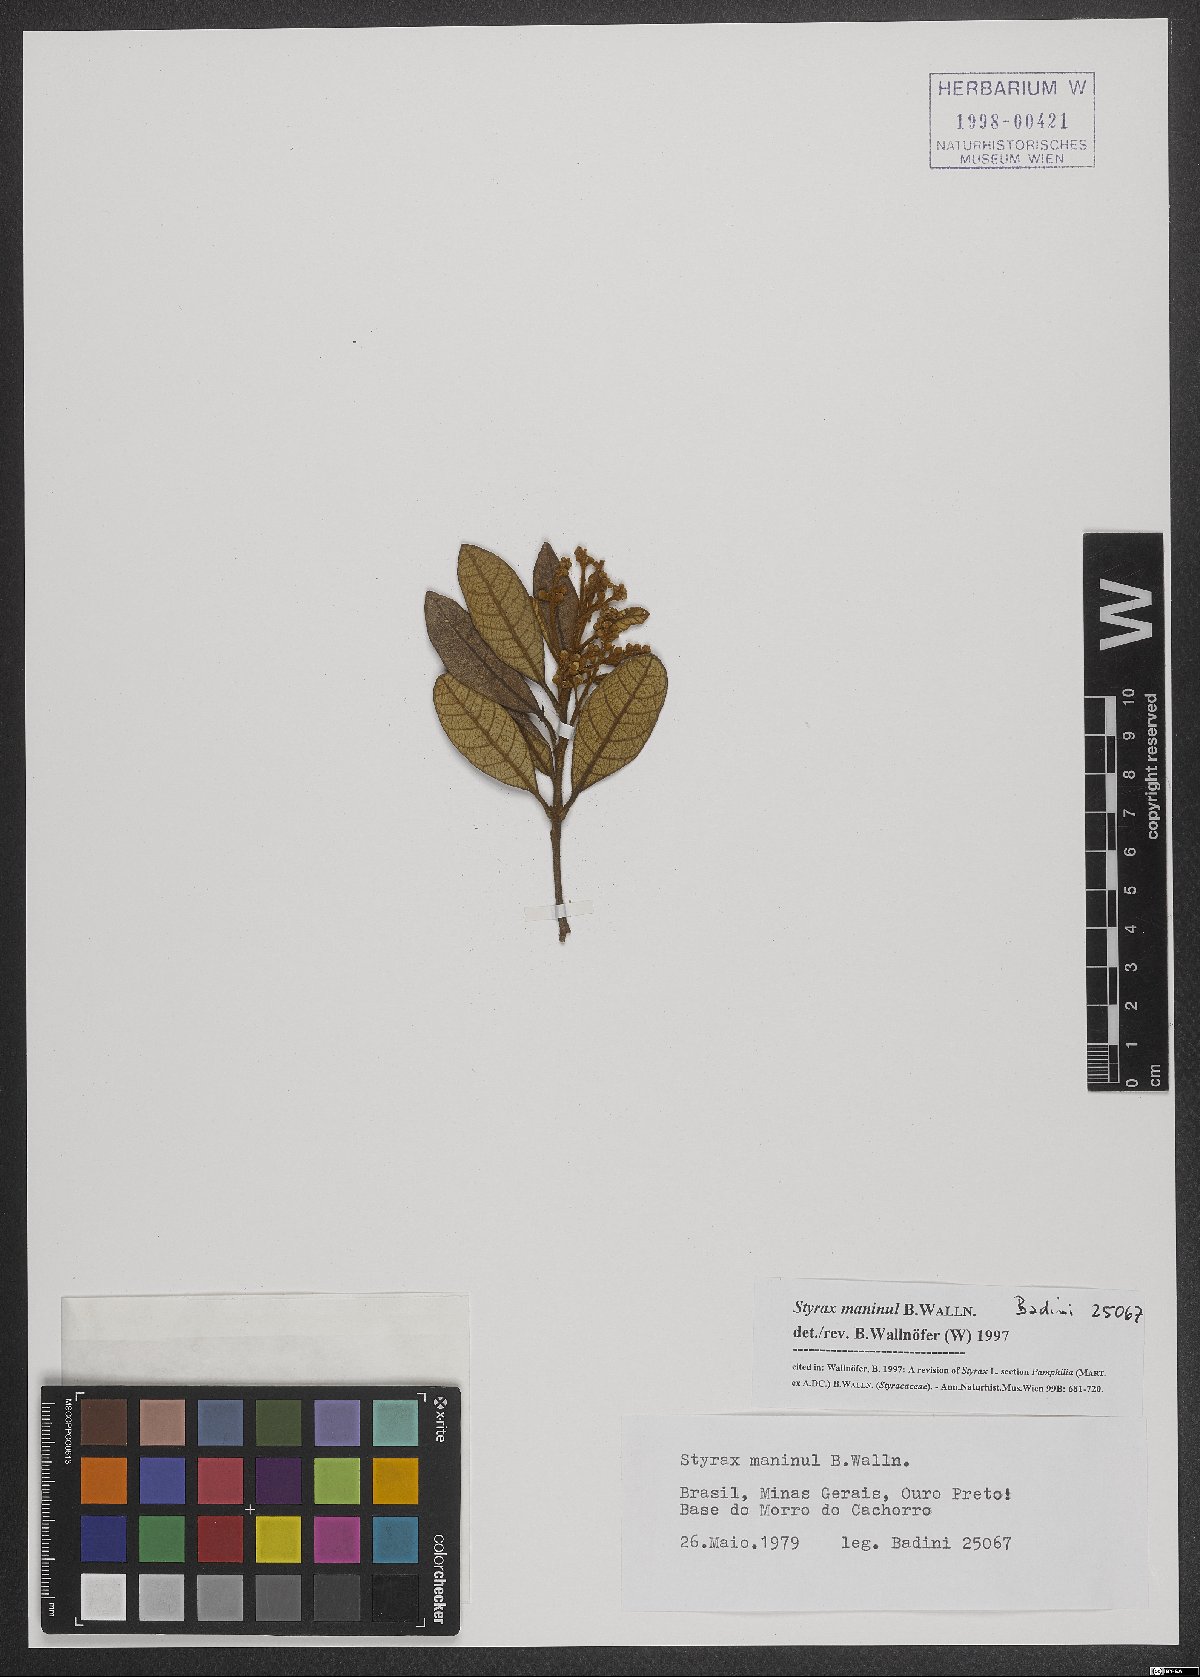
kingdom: Plantae
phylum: Tracheophyta
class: Magnoliopsida
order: Ericales
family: Styracaceae
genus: Styrax
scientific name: Styrax maninul
